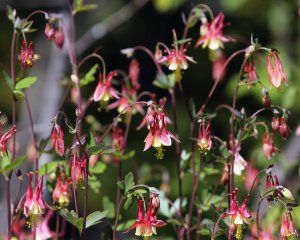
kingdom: Animalia
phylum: Arthropoda
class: Insecta
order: Lepidoptera
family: Hesperiidae
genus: Gesta
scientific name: Gesta
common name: Columbine Duskywing
